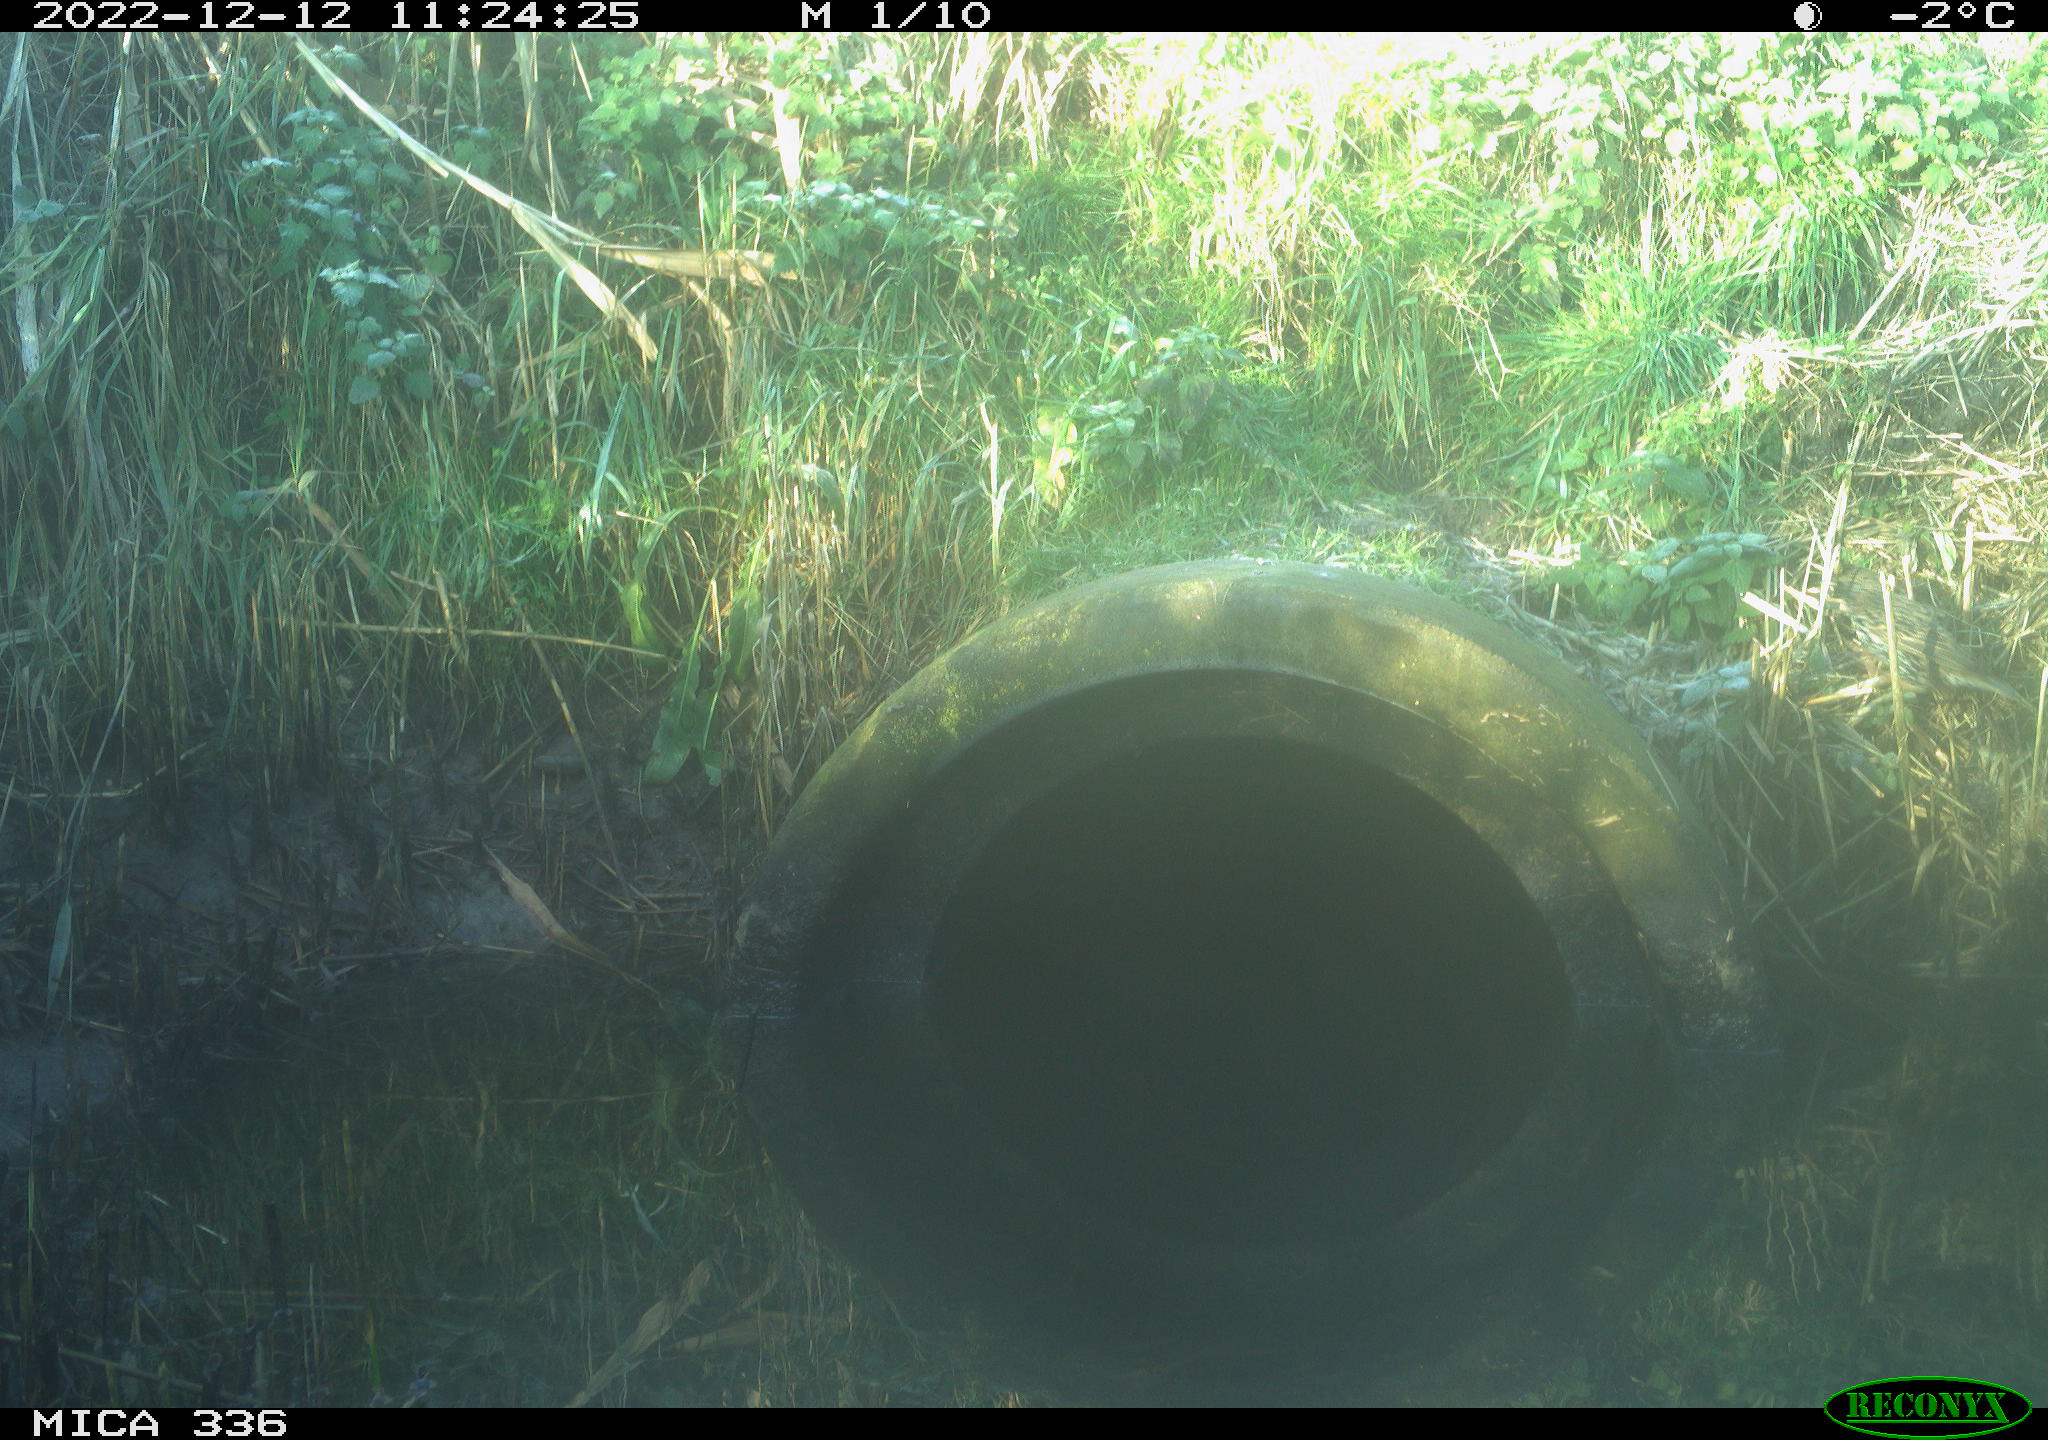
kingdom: Animalia
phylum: Chordata
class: Aves
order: Passeriformes
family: Sturnidae
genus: Sturnus
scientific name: Sturnus vulgaris
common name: Common starling
